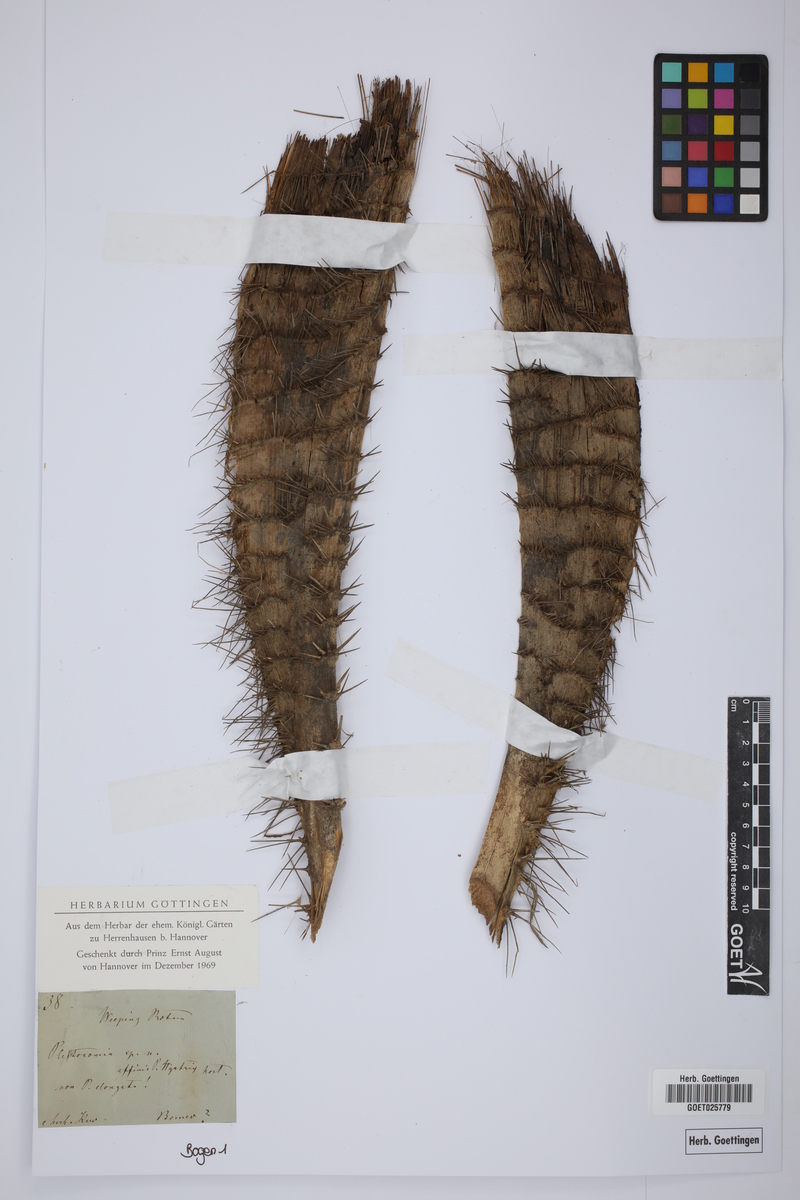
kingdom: Plantae
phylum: Tracheophyta
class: Liliopsida
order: Arecales
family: Arecaceae
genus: Plectocomia
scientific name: Plectocomia
